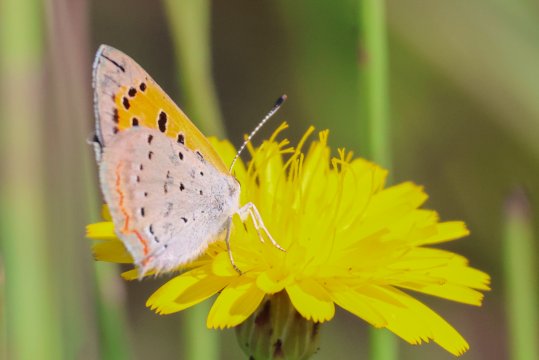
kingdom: Animalia
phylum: Arthropoda
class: Insecta
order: Lepidoptera
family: Lycaenidae
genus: Lycaena
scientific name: Lycaena phlaeas
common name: American Copper
